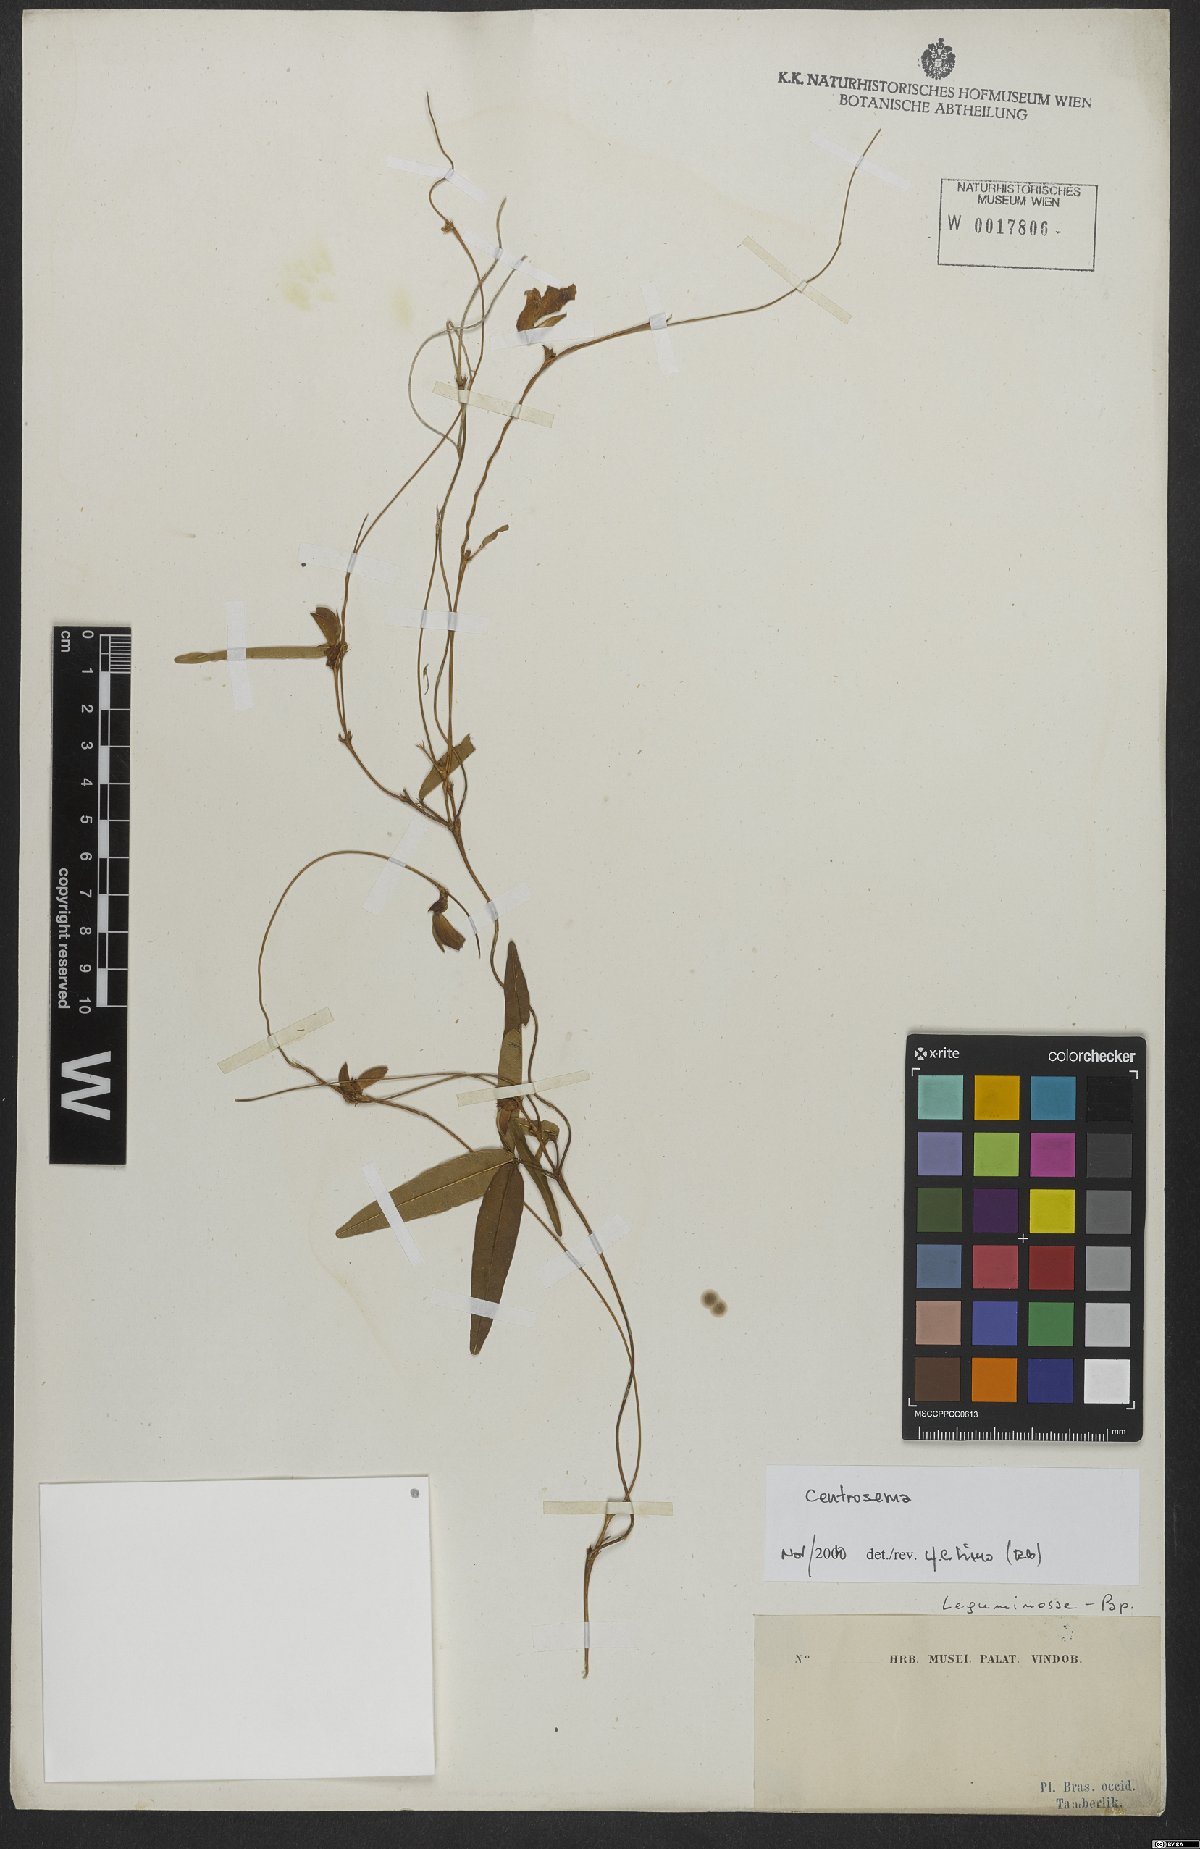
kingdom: Plantae
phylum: Tracheophyta
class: Magnoliopsida
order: Fabales
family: Fabaceae
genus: Centrosema
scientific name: Centrosema
